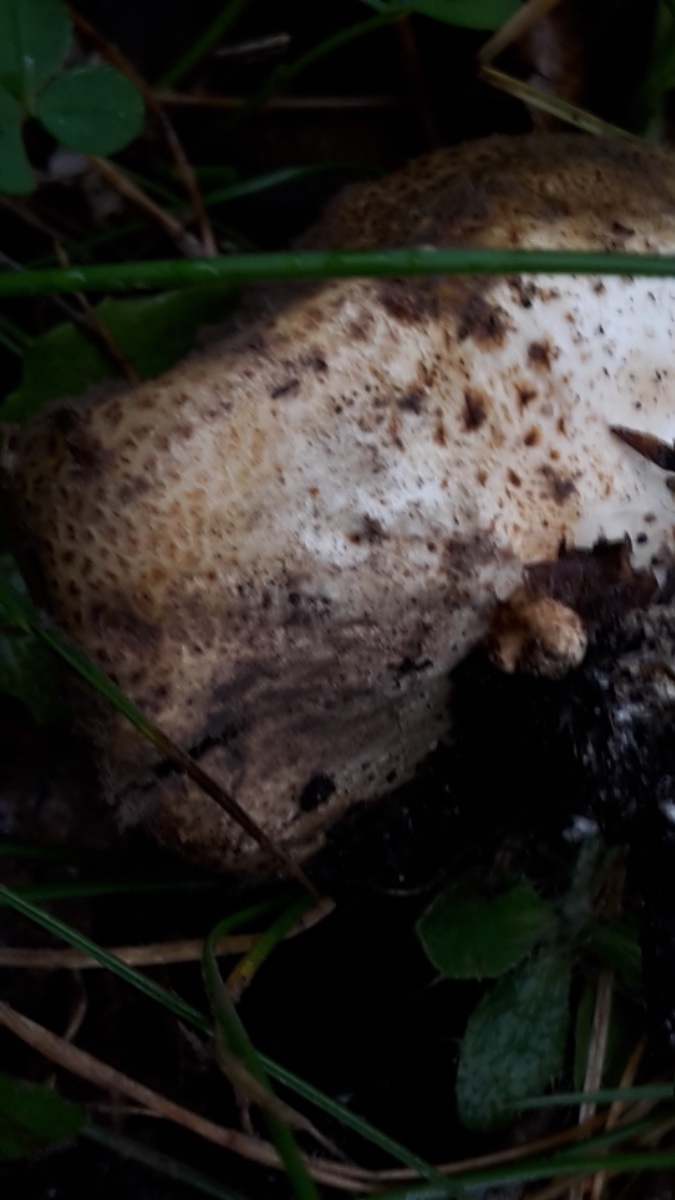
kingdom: Fungi
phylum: Basidiomycota
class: Agaricomycetes
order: Boletales
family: Sclerodermataceae
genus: Scleroderma
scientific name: Scleroderma areolatum
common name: plettet bruskbold
